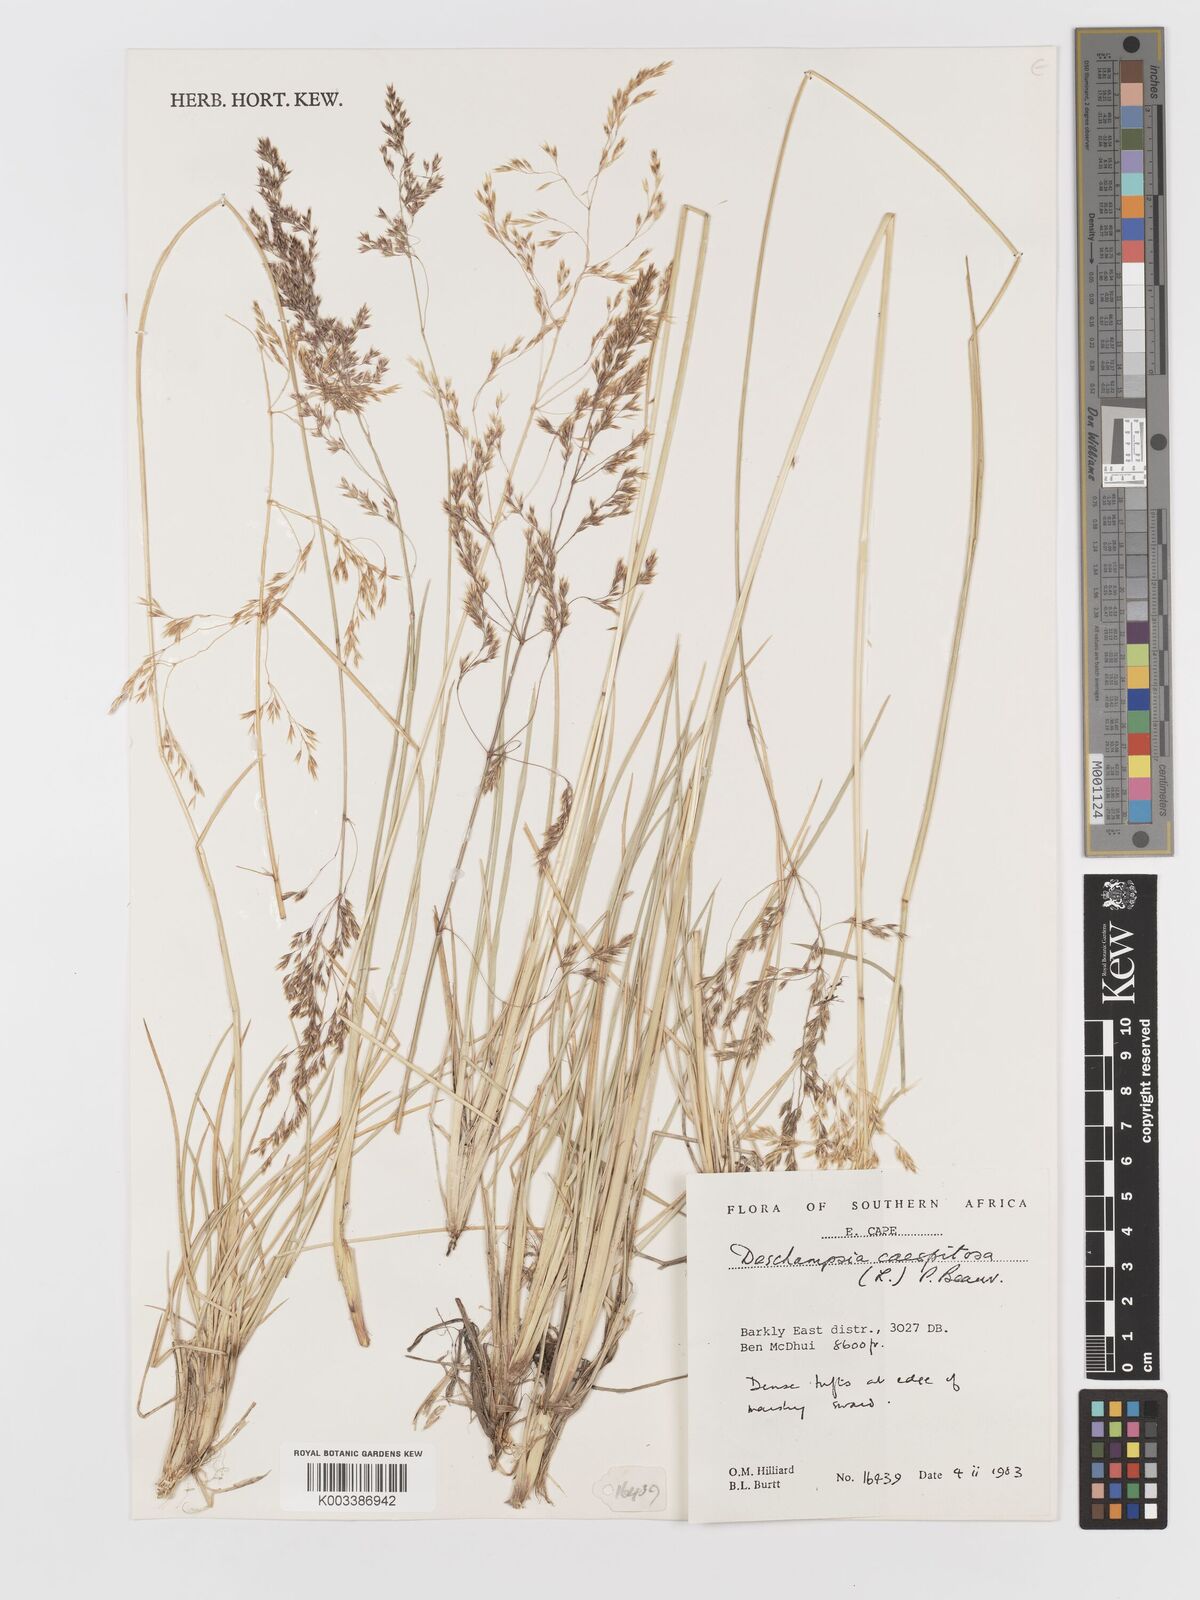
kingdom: Plantae
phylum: Tracheophyta
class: Liliopsida
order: Poales
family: Poaceae
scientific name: Poaceae
